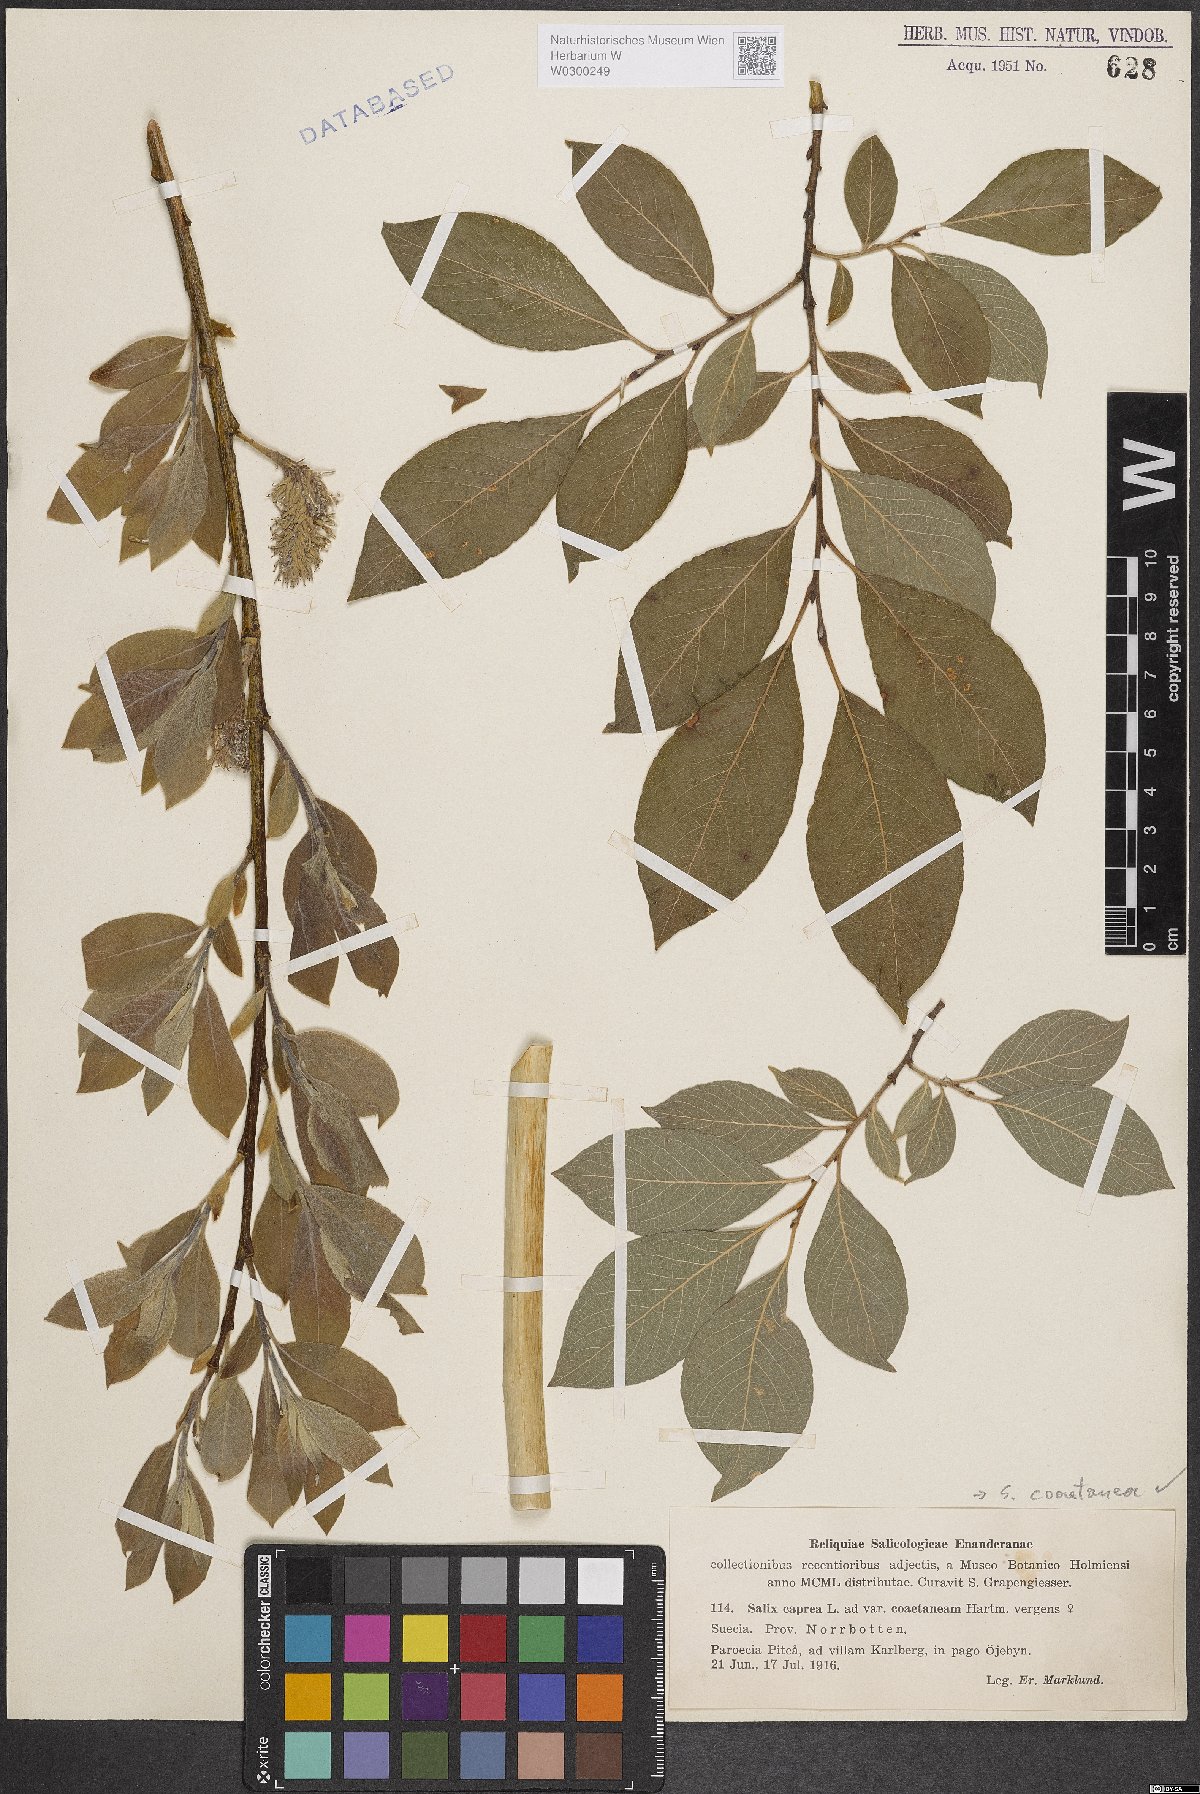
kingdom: Plantae
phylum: Tracheophyta
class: Magnoliopsida
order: Malpighiales
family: Salicaceae
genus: Salix
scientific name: Salix caprea
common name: Goat willow
